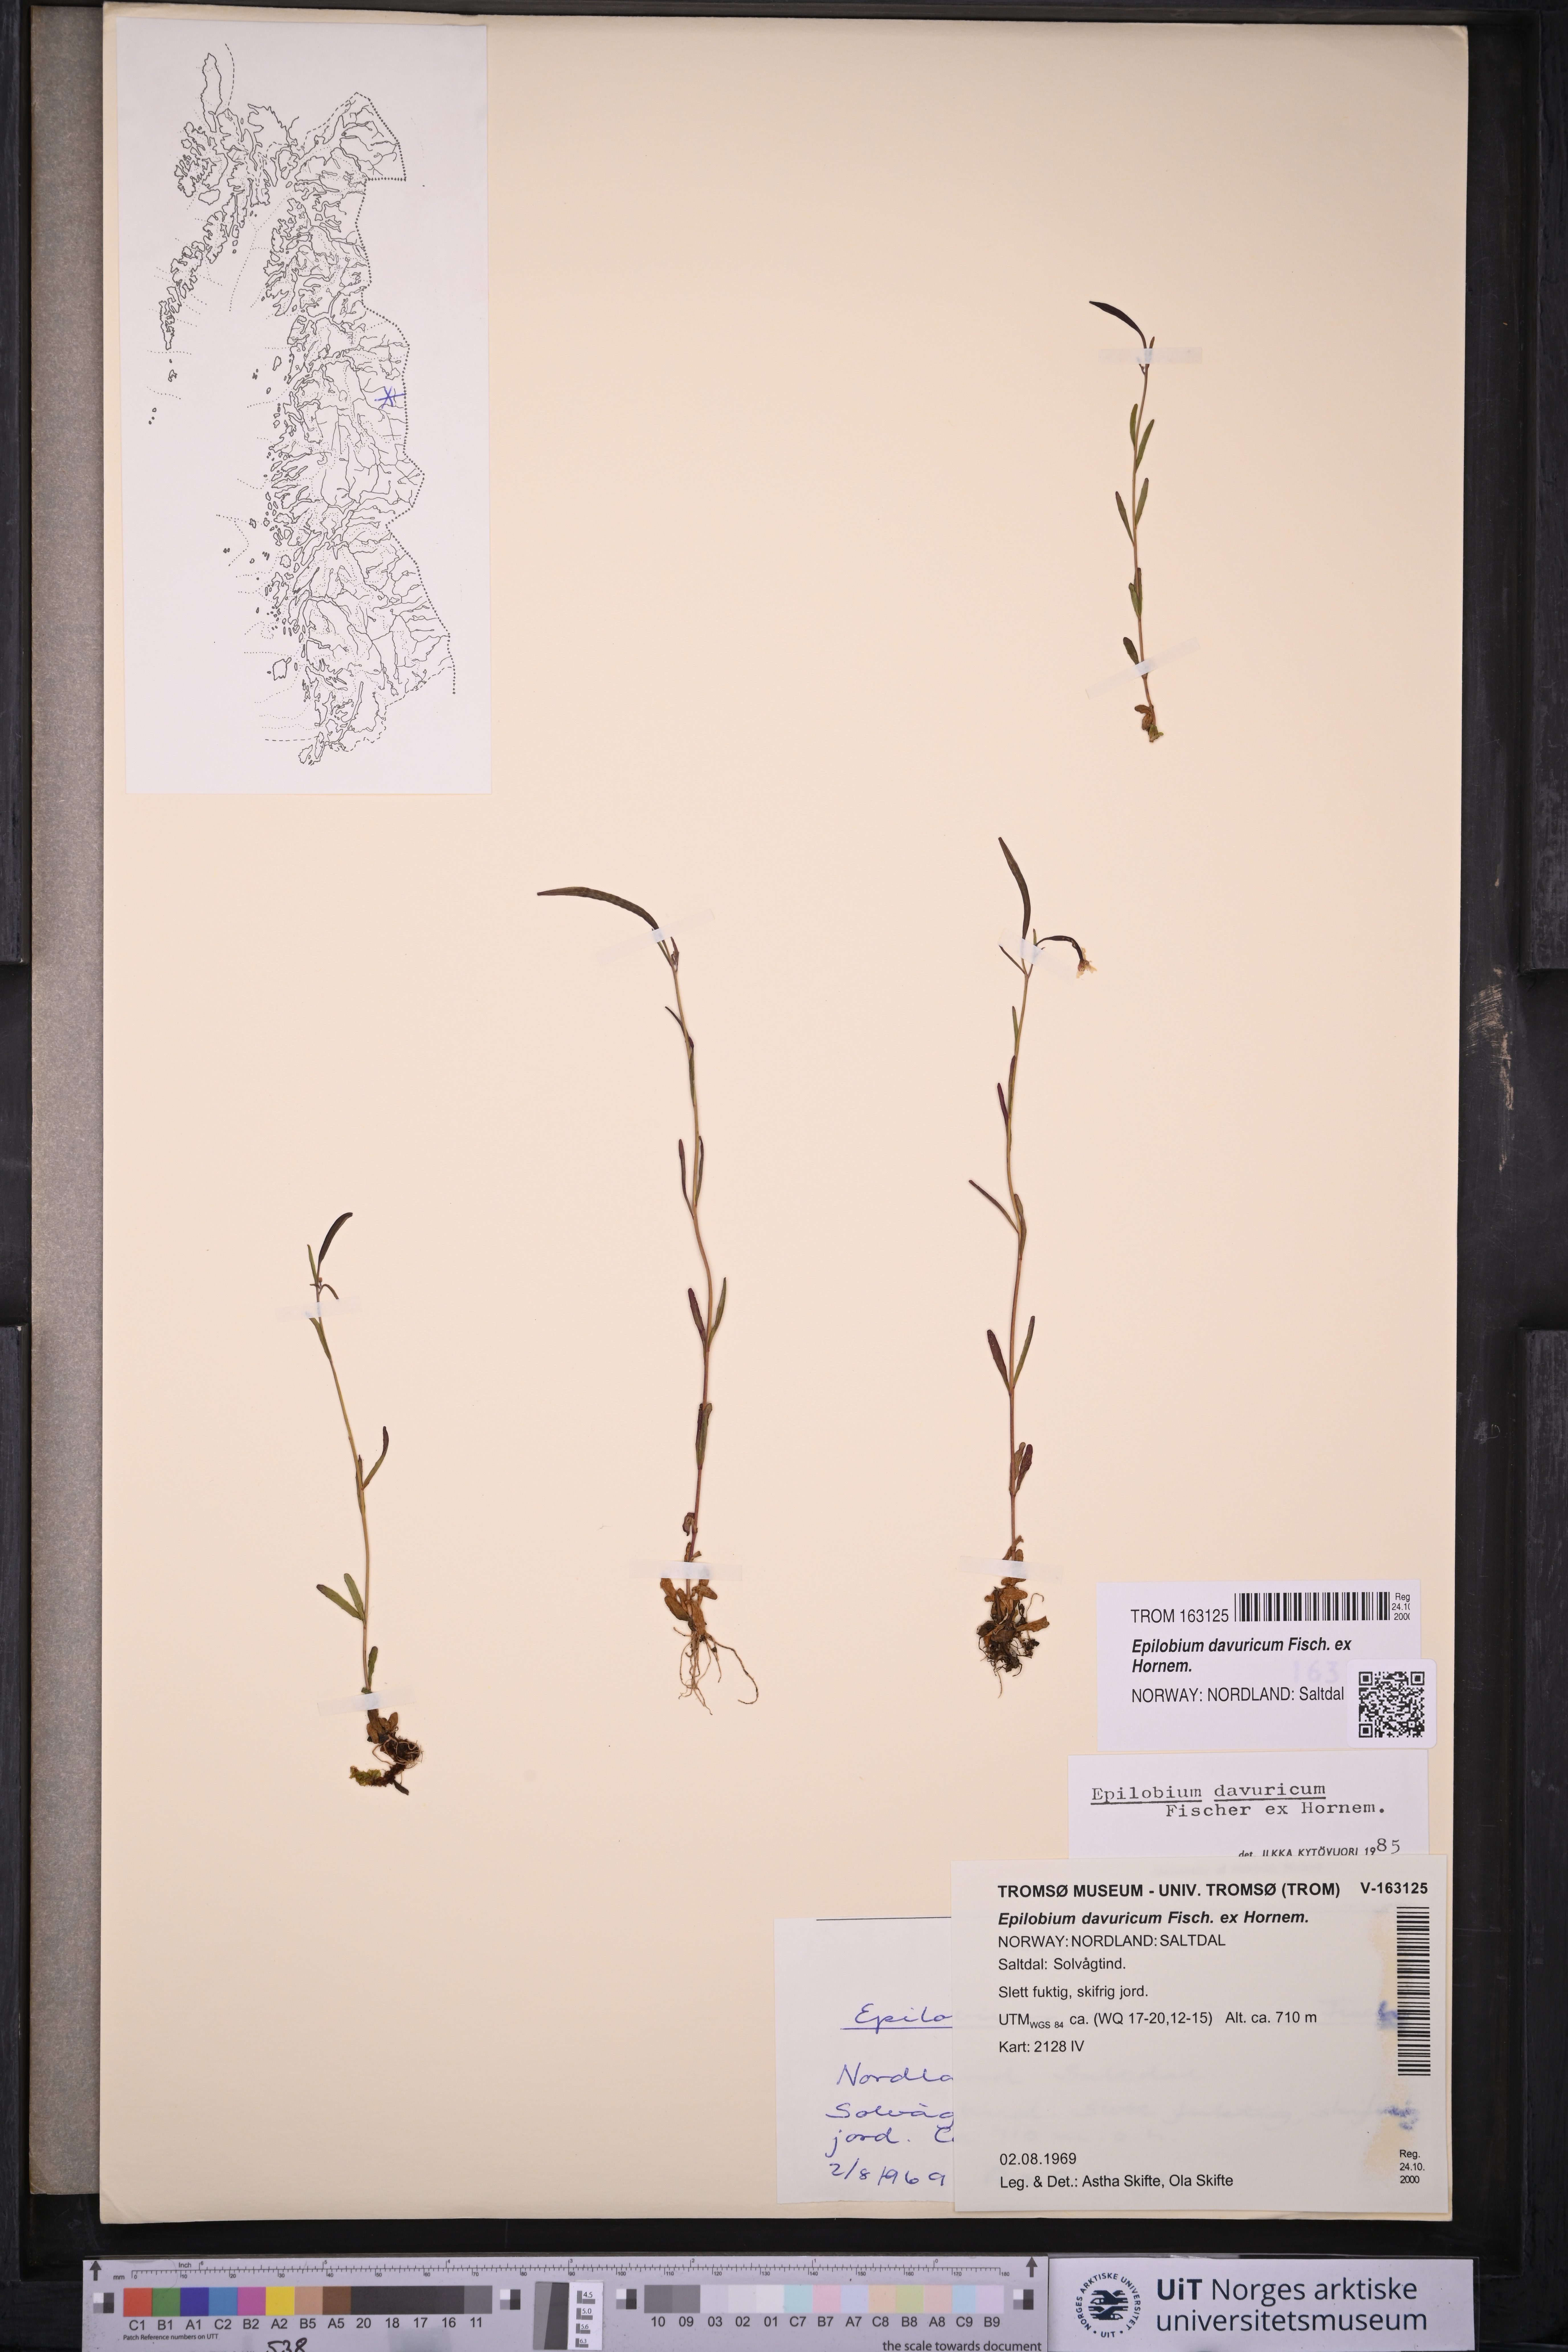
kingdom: Plantae
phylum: Tracheophyta
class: Magnoliopsida
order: Myrtales
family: Onagraceae
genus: Epilobium
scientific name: Epilobium davuricum
